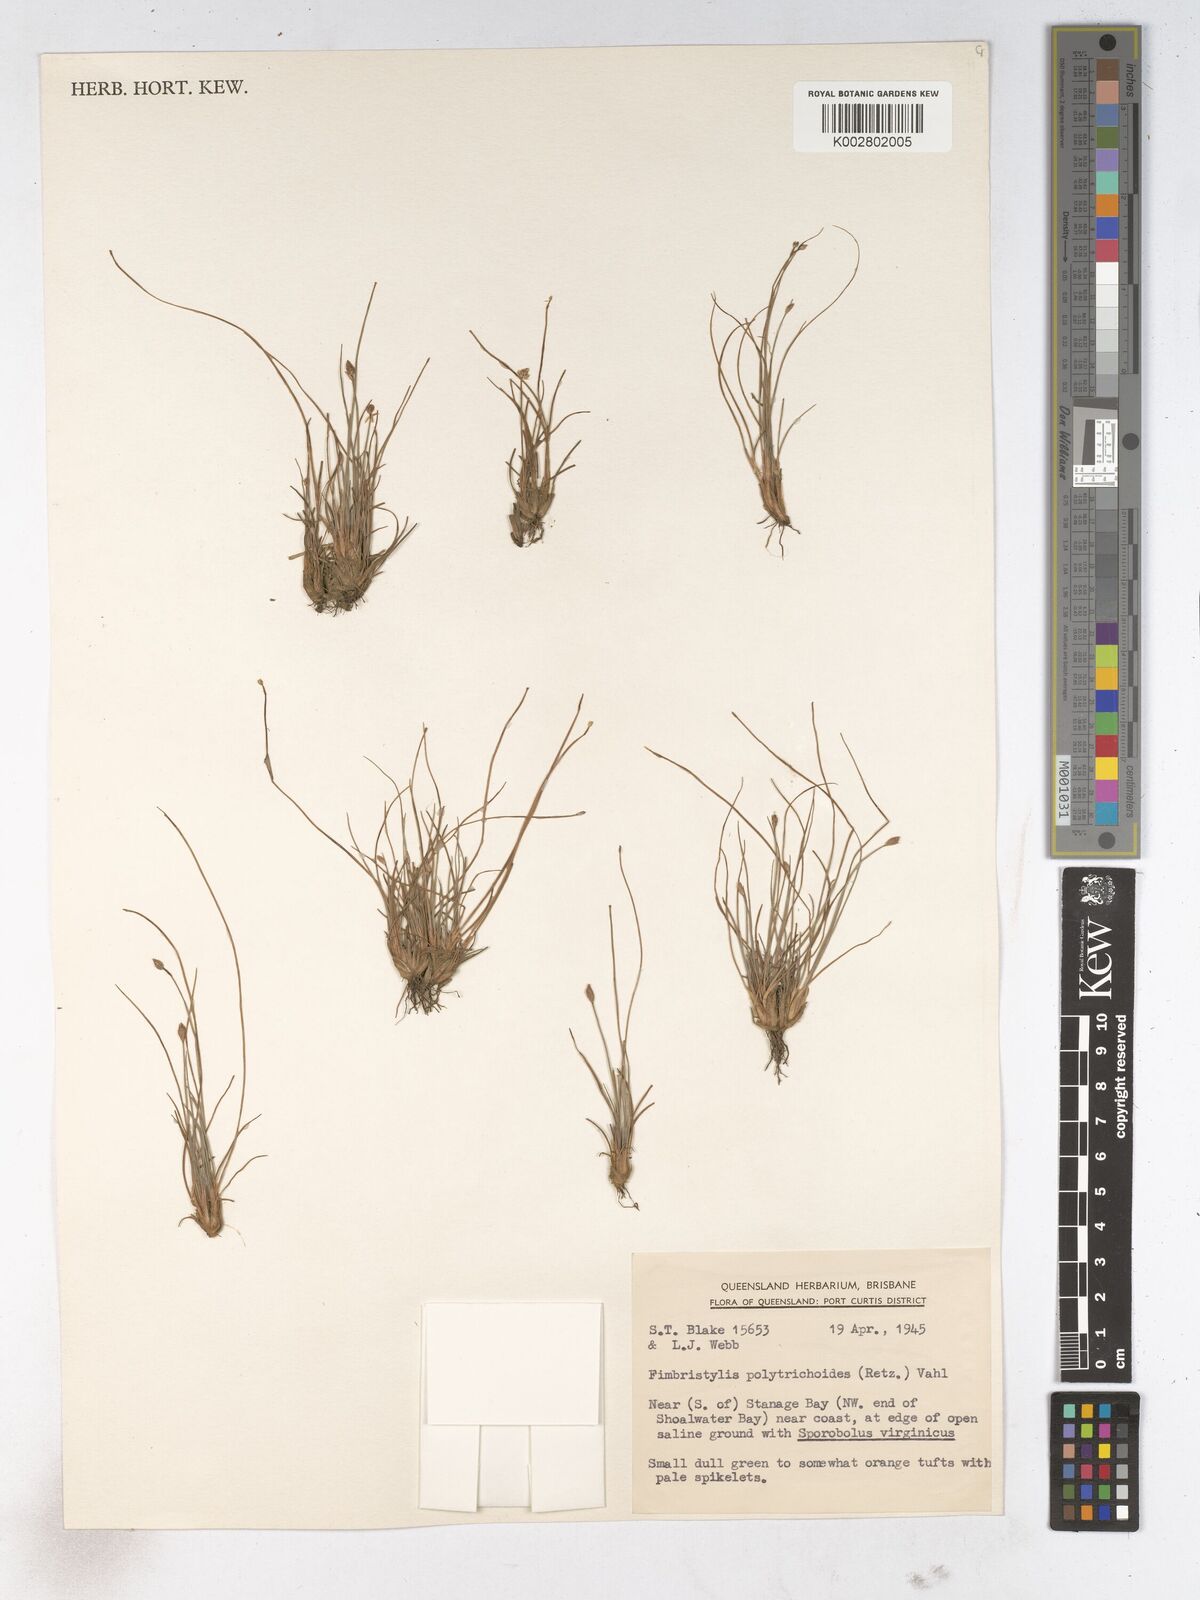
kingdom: Plantae
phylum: Tracheophyta
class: Liliopsida
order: Poales
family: Cyperaceae
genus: Fimbristylis
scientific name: Fimbristylis polytrichoides
